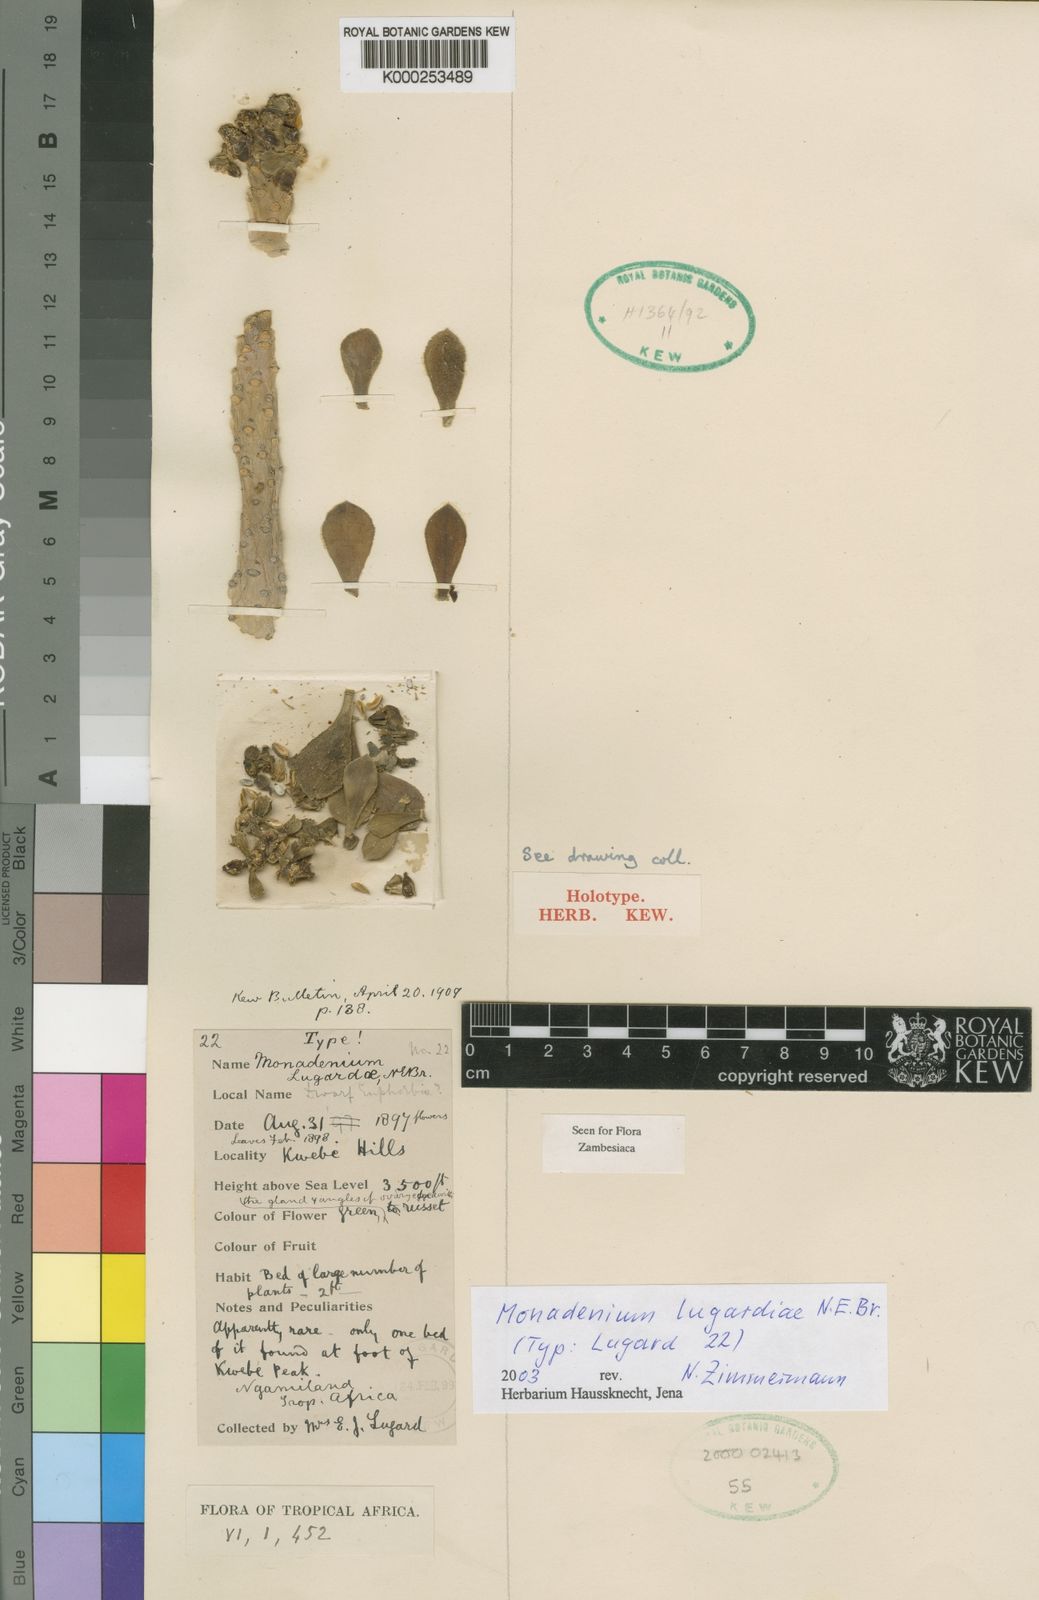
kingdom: Plantae
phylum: Tracheophyta
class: Magnoliopsida
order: Malpighiales
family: Euphorbiaceae
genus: Euphorbia
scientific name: Euphorbia lugardiae
